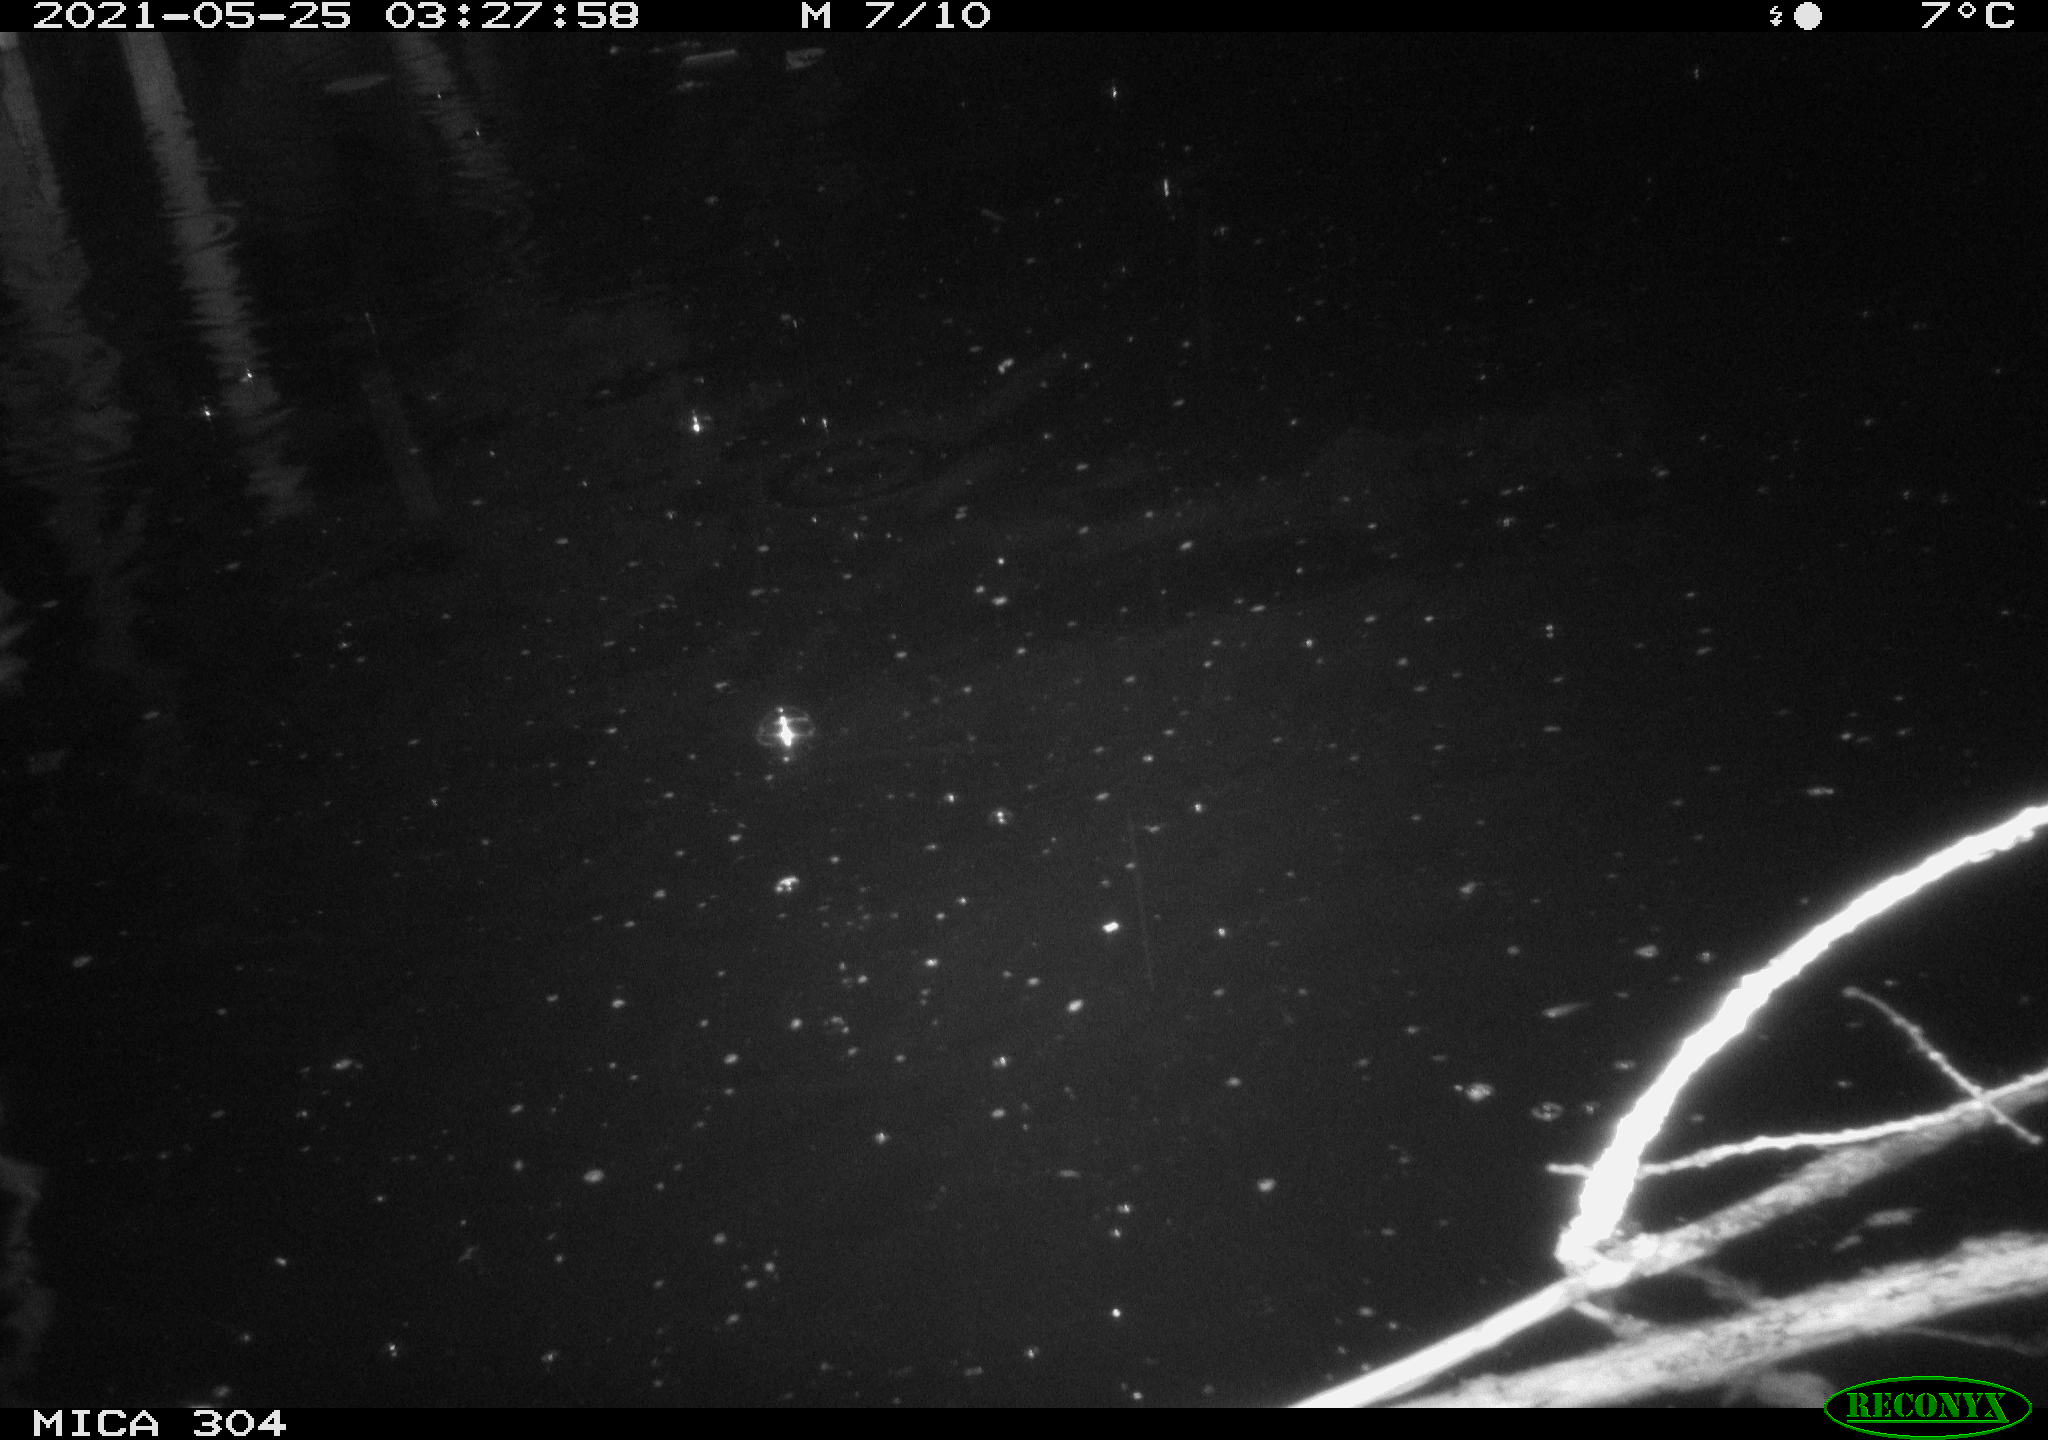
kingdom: Animalia
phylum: Chordata
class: Aves
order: Anseriformes
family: Anatidae
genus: Anas
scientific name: Anas platyrhynchos
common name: Mallard
